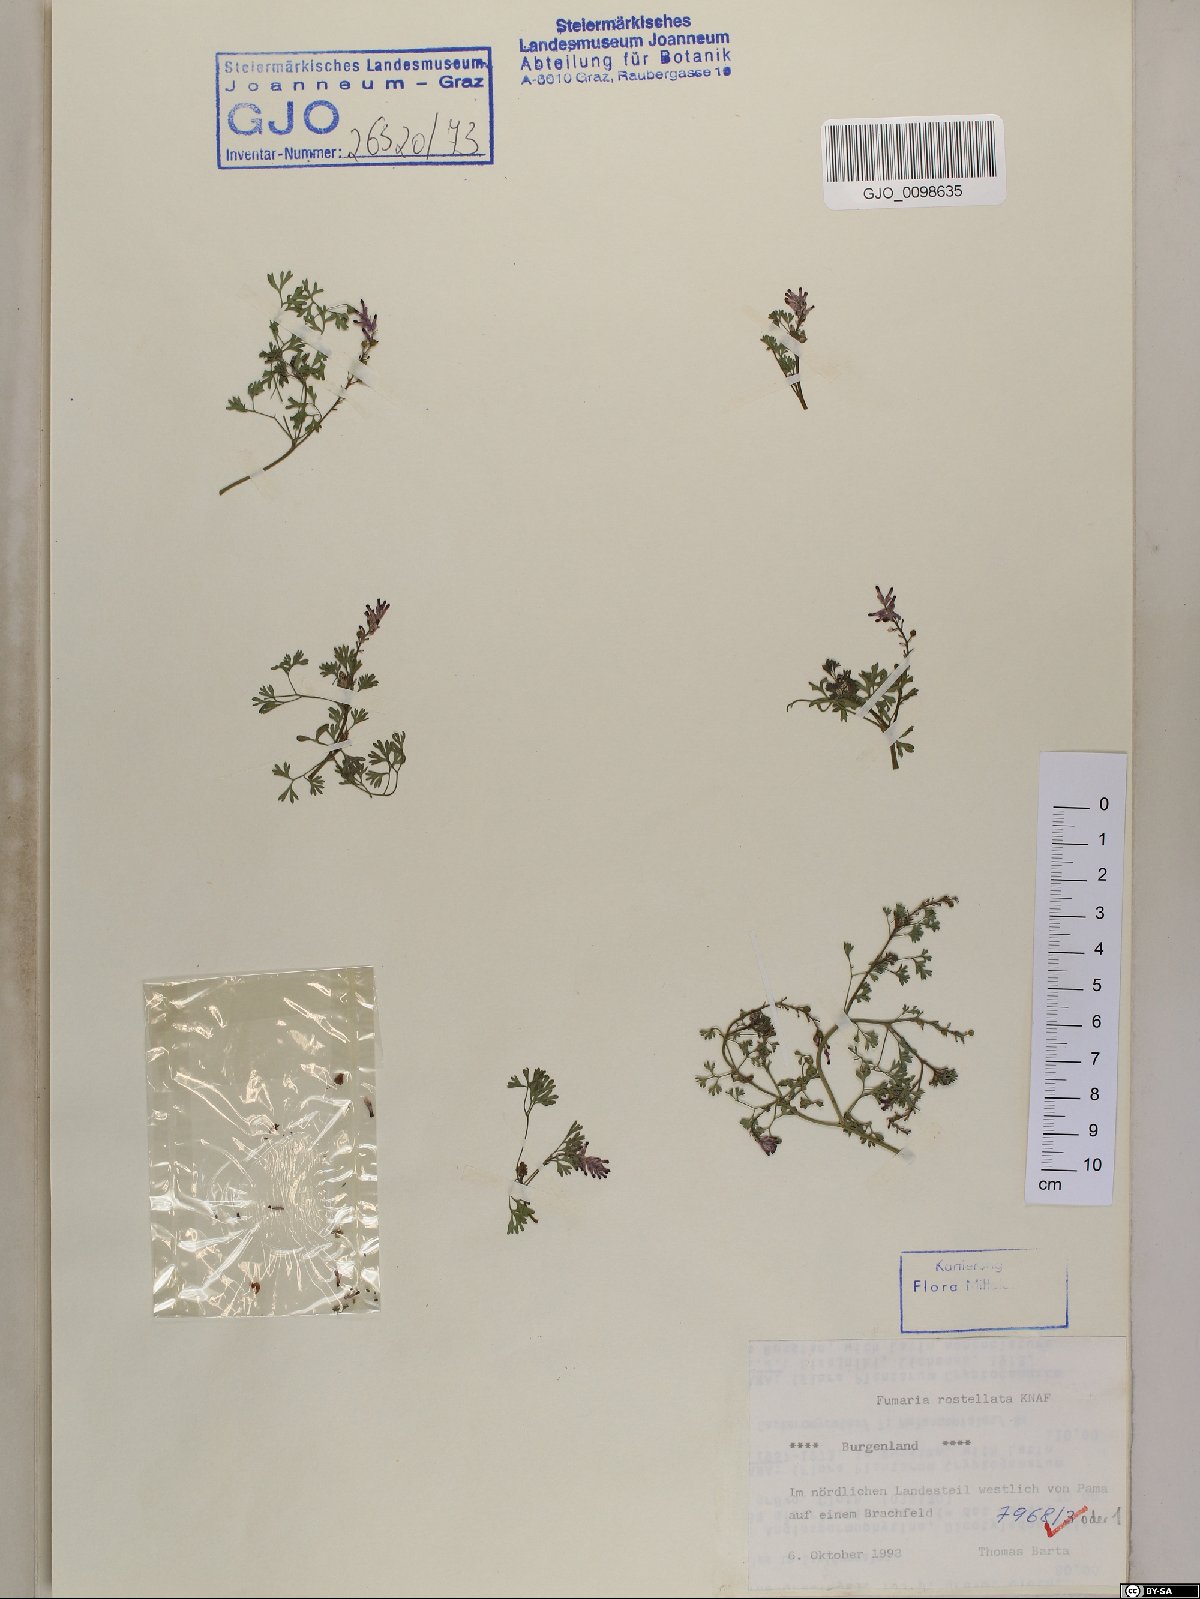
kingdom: Plantae
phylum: Tracheophyta
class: Magnoliopsida
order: Ranunculales
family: Papaveraceae
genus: Fumaria
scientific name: Fumaria rostellata
